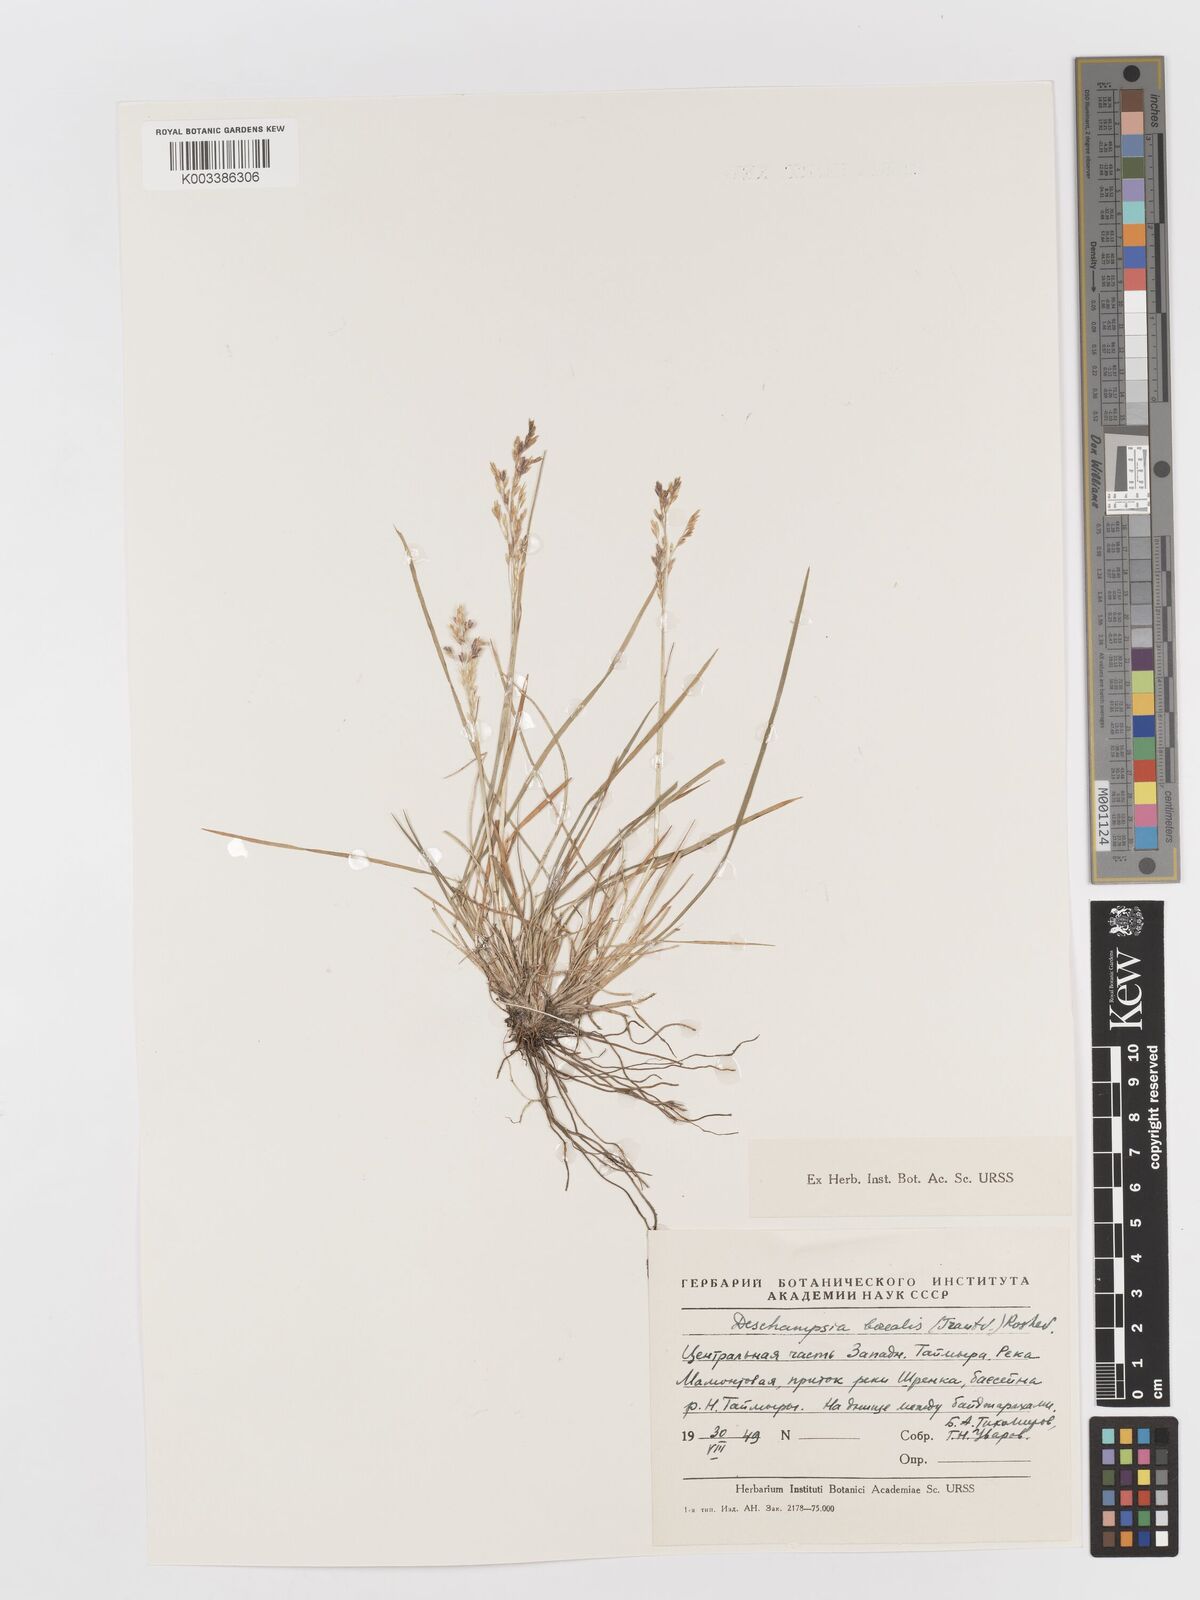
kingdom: Plantae
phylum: Tracheophyta
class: Liliopsida
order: Poales
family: Poaceae
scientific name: Poaceae
